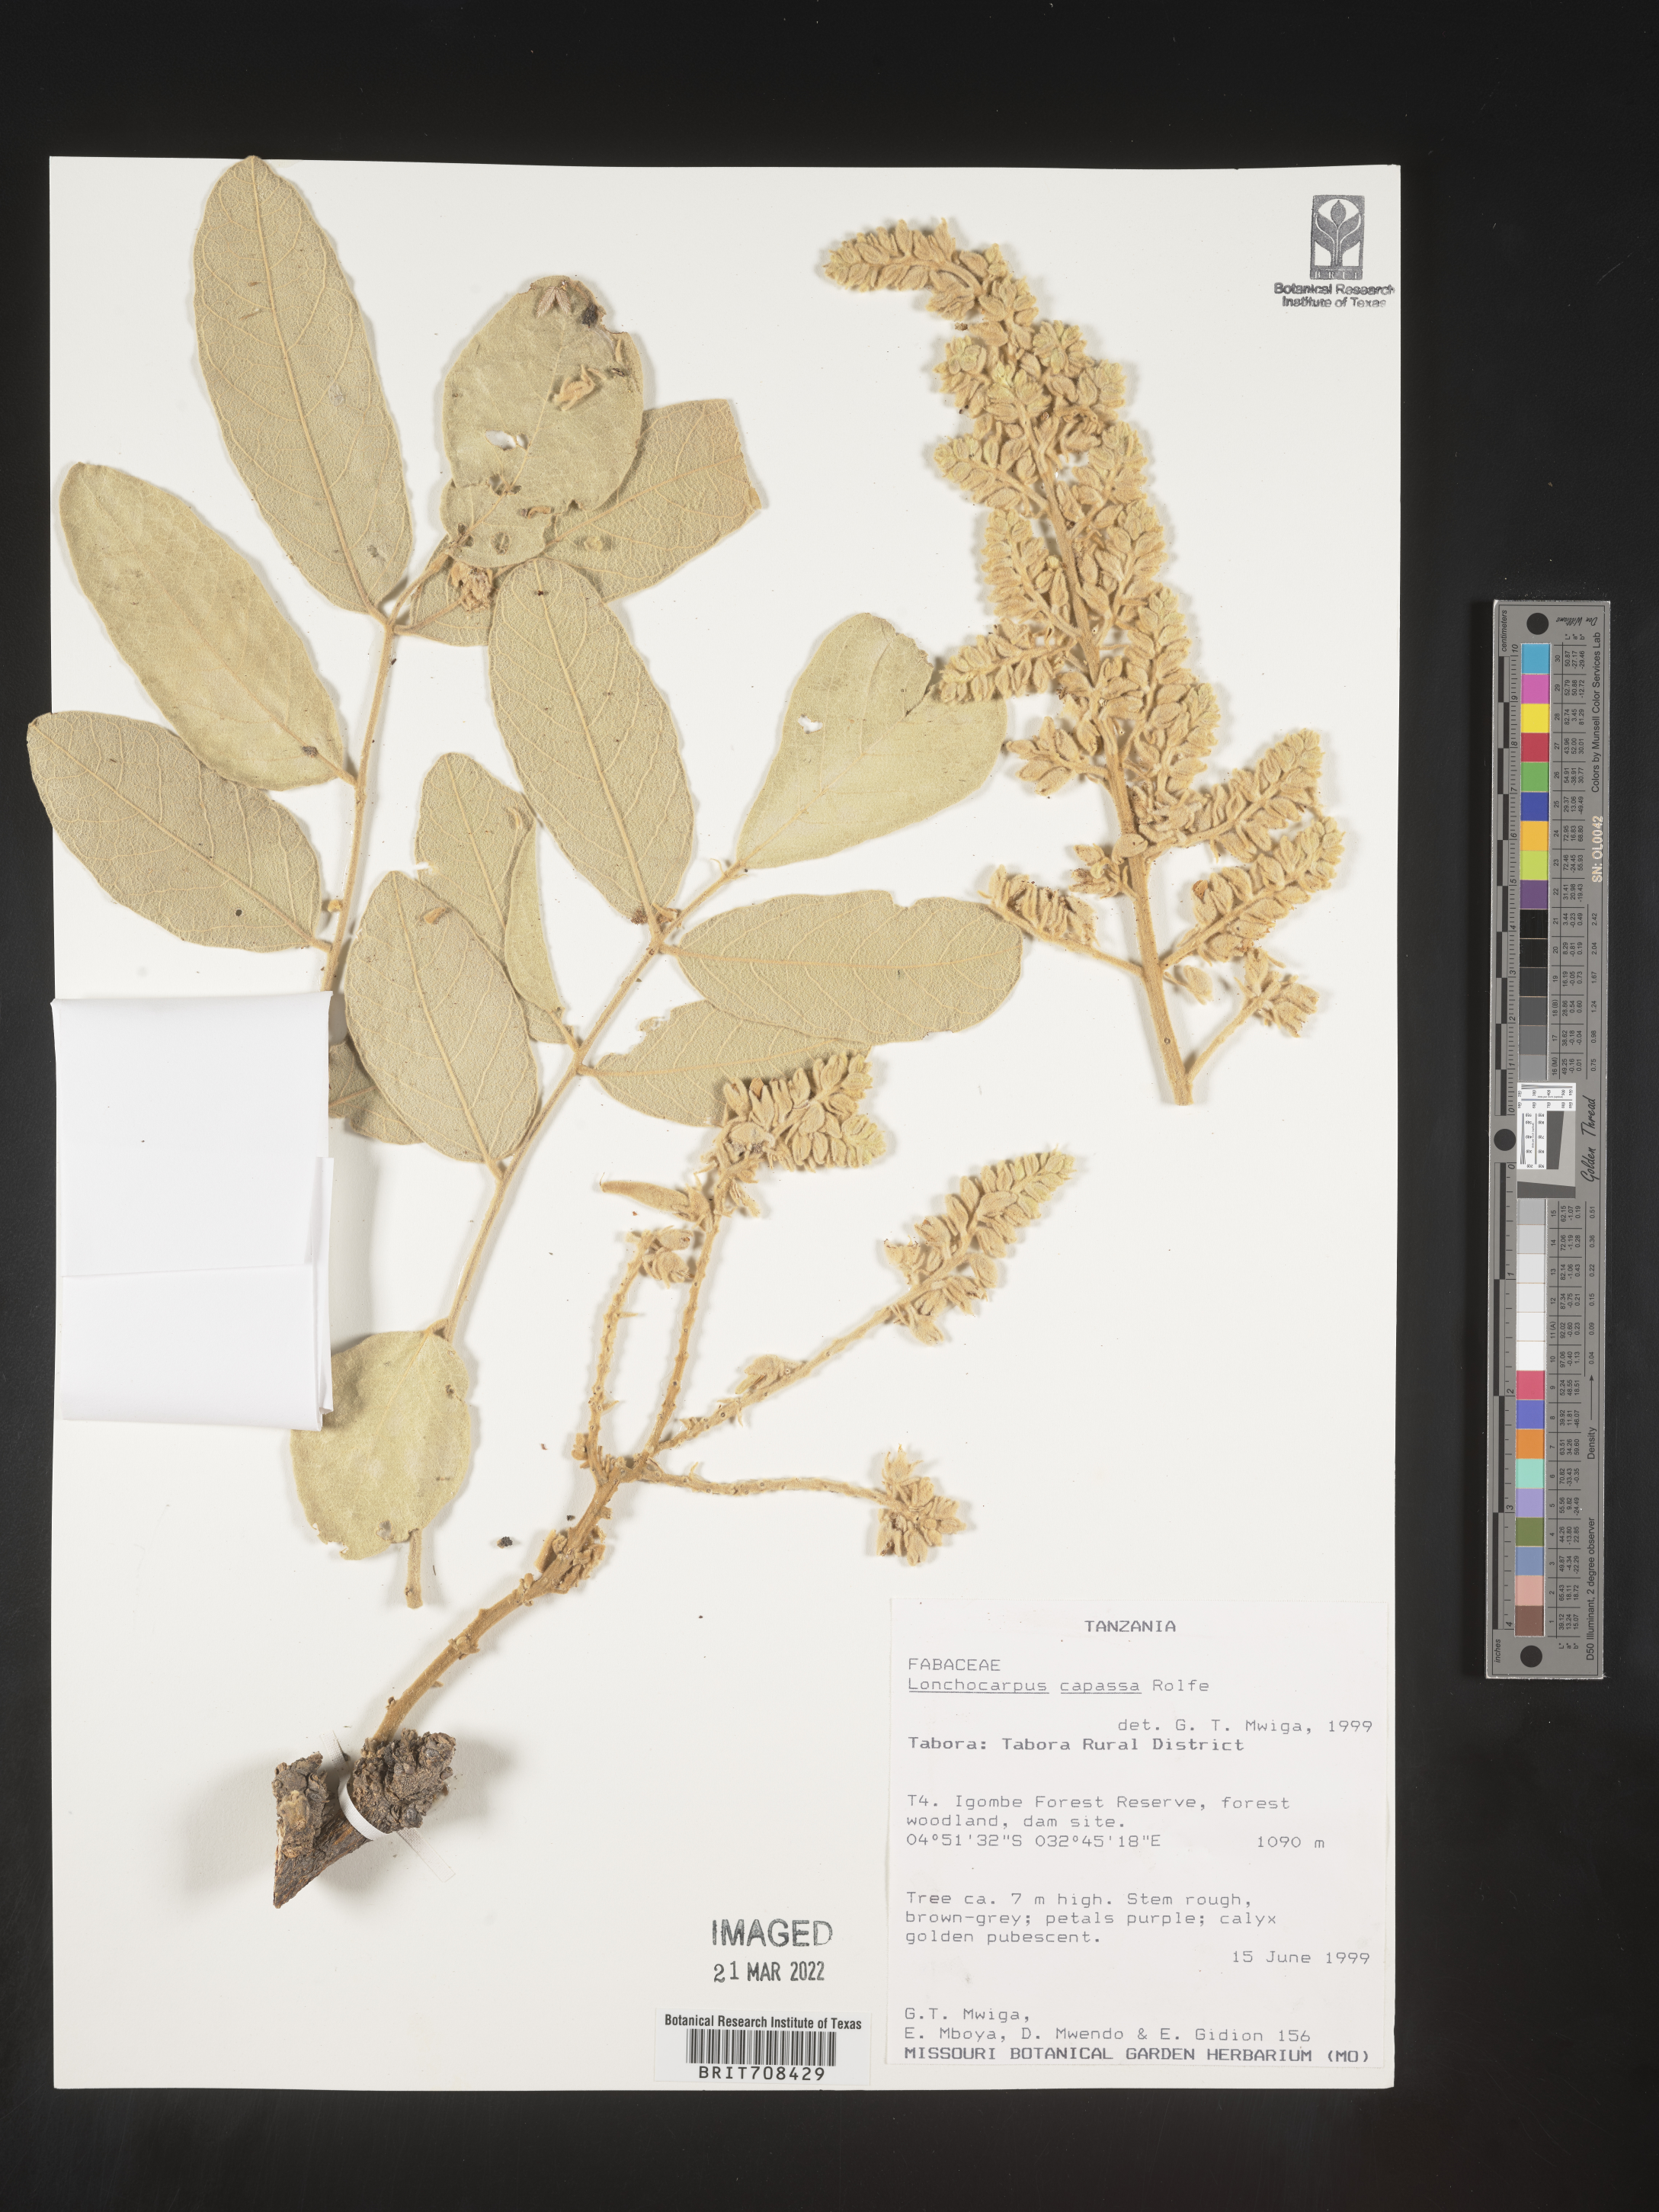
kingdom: Plantae
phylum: Tracheophyta
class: Magnoliopsida
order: Fabales
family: Fabaceae
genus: Lonchocarpus
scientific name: Lonchocarpus
